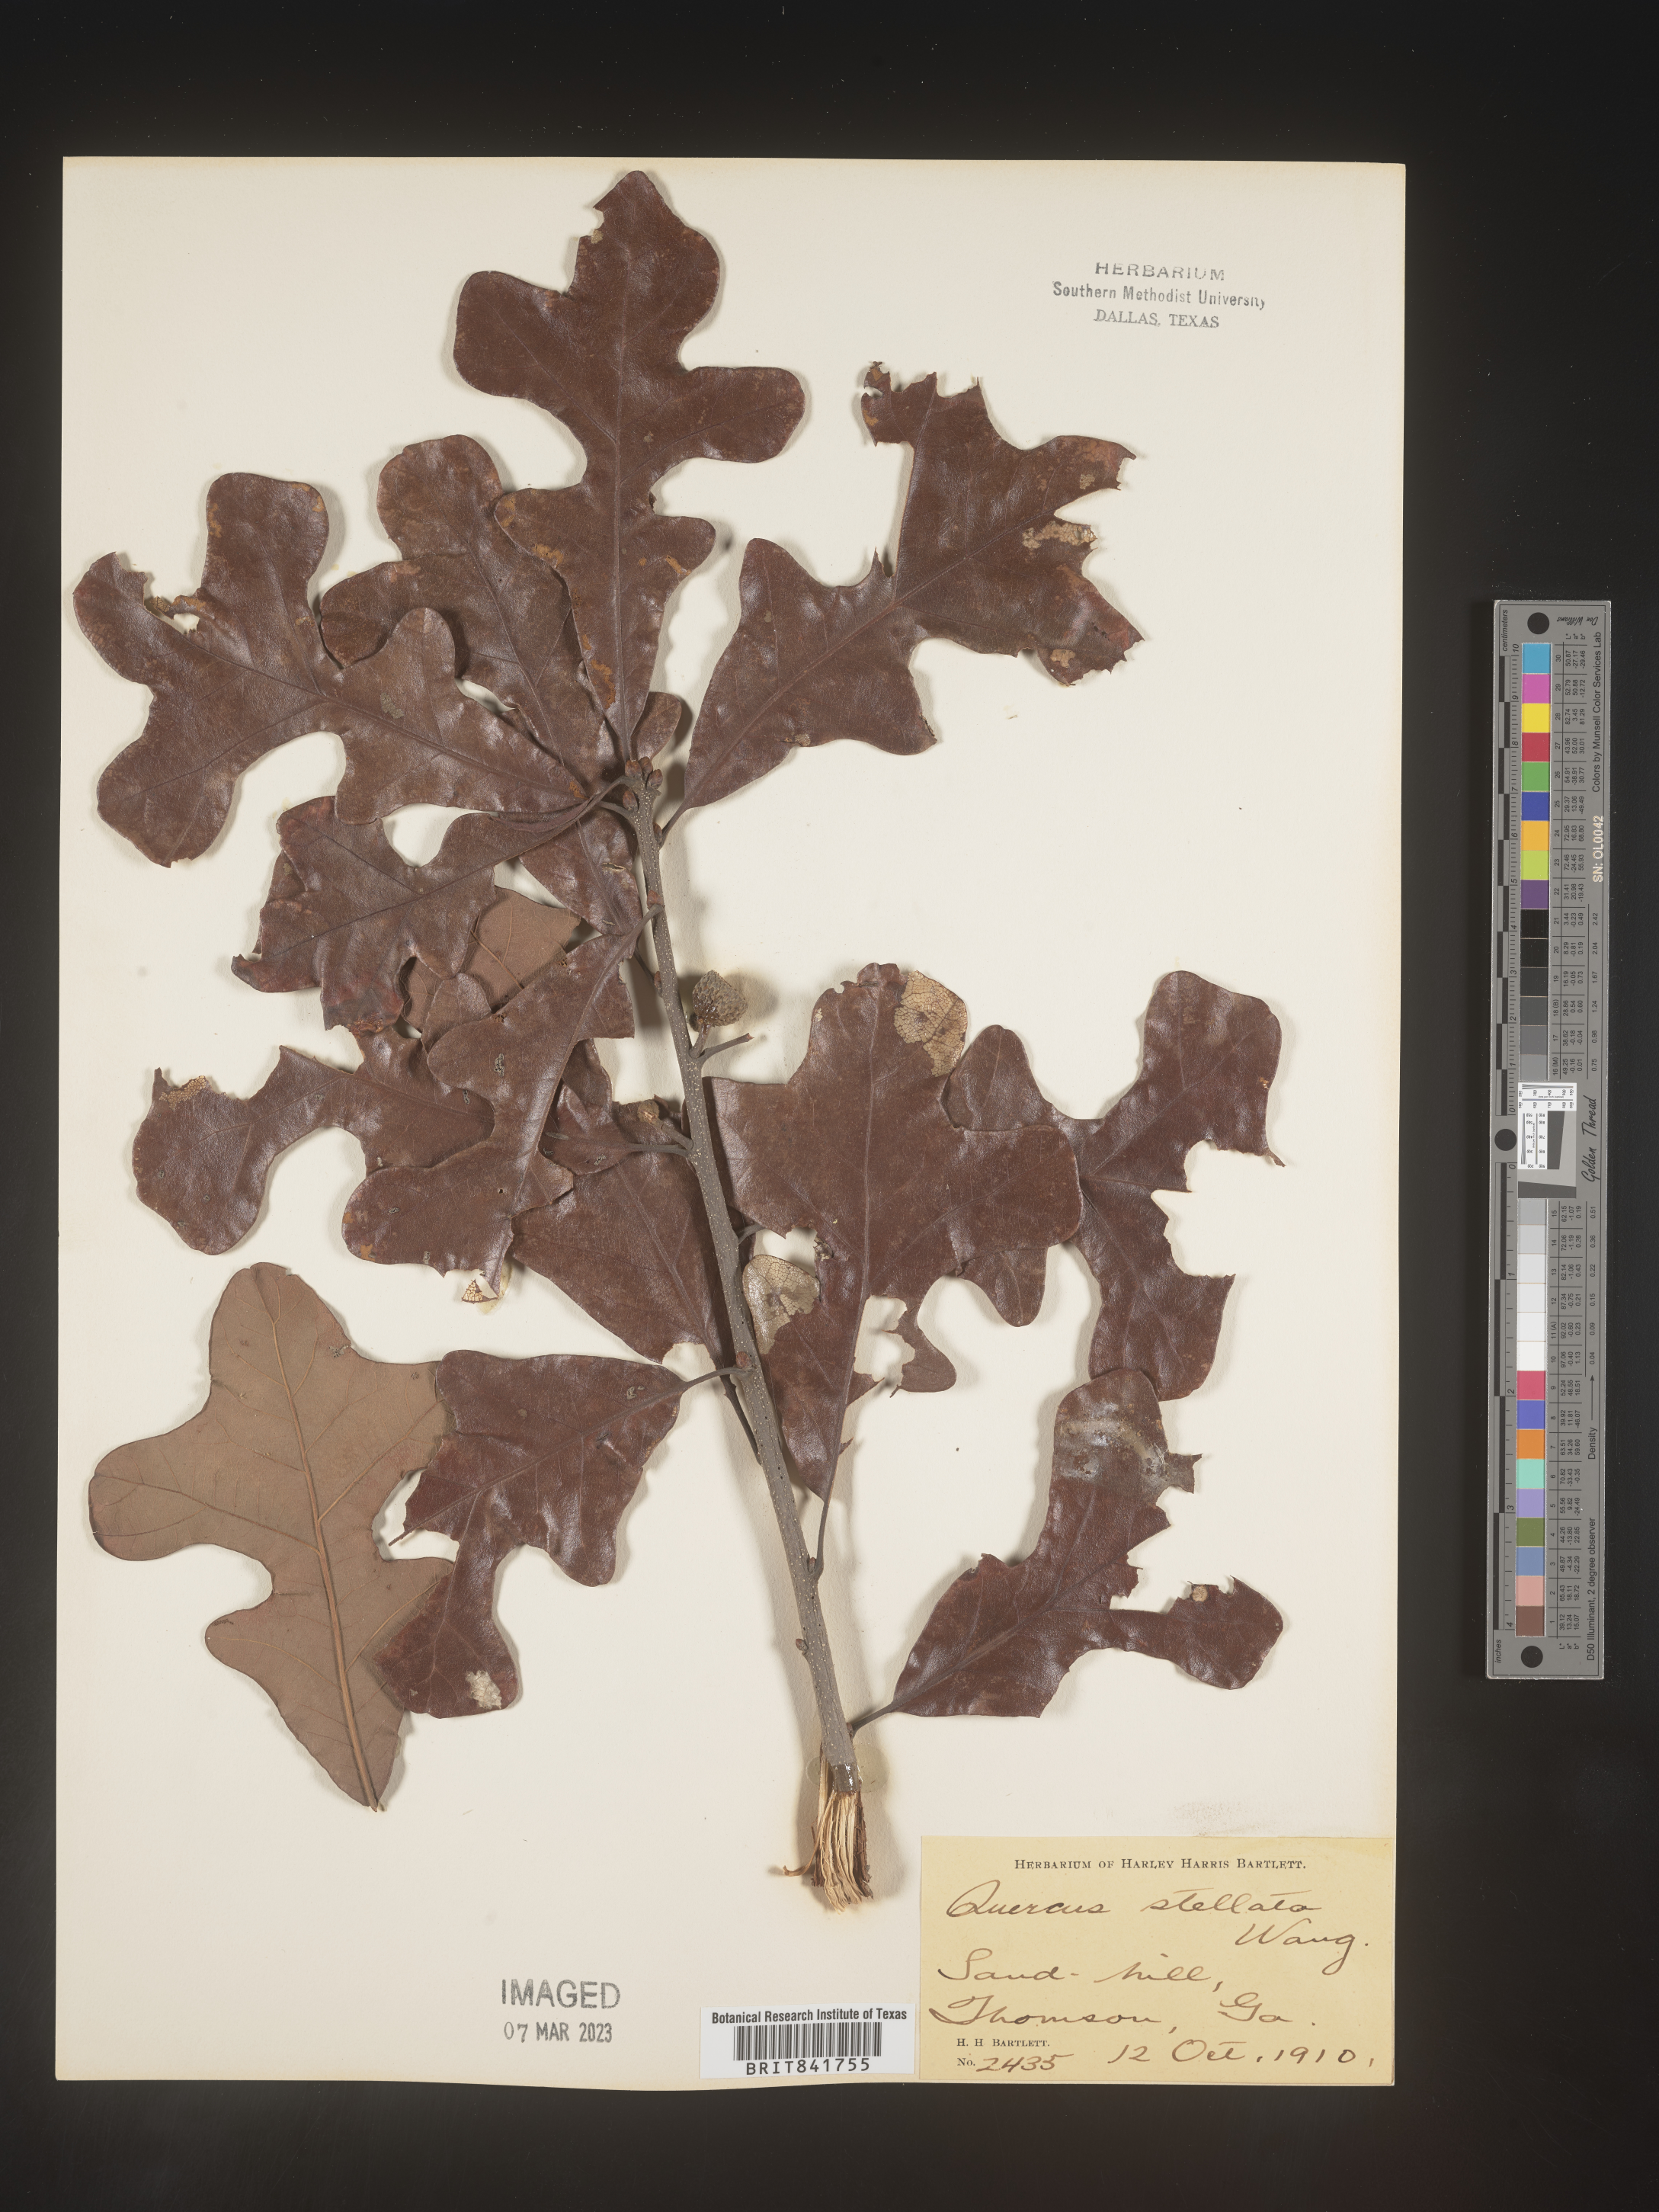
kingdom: Plantae
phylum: Tracheophyta
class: Magnoliopsida
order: Fagales
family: Fagaceae
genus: Quercus
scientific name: Quercus stellata
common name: Post oak
